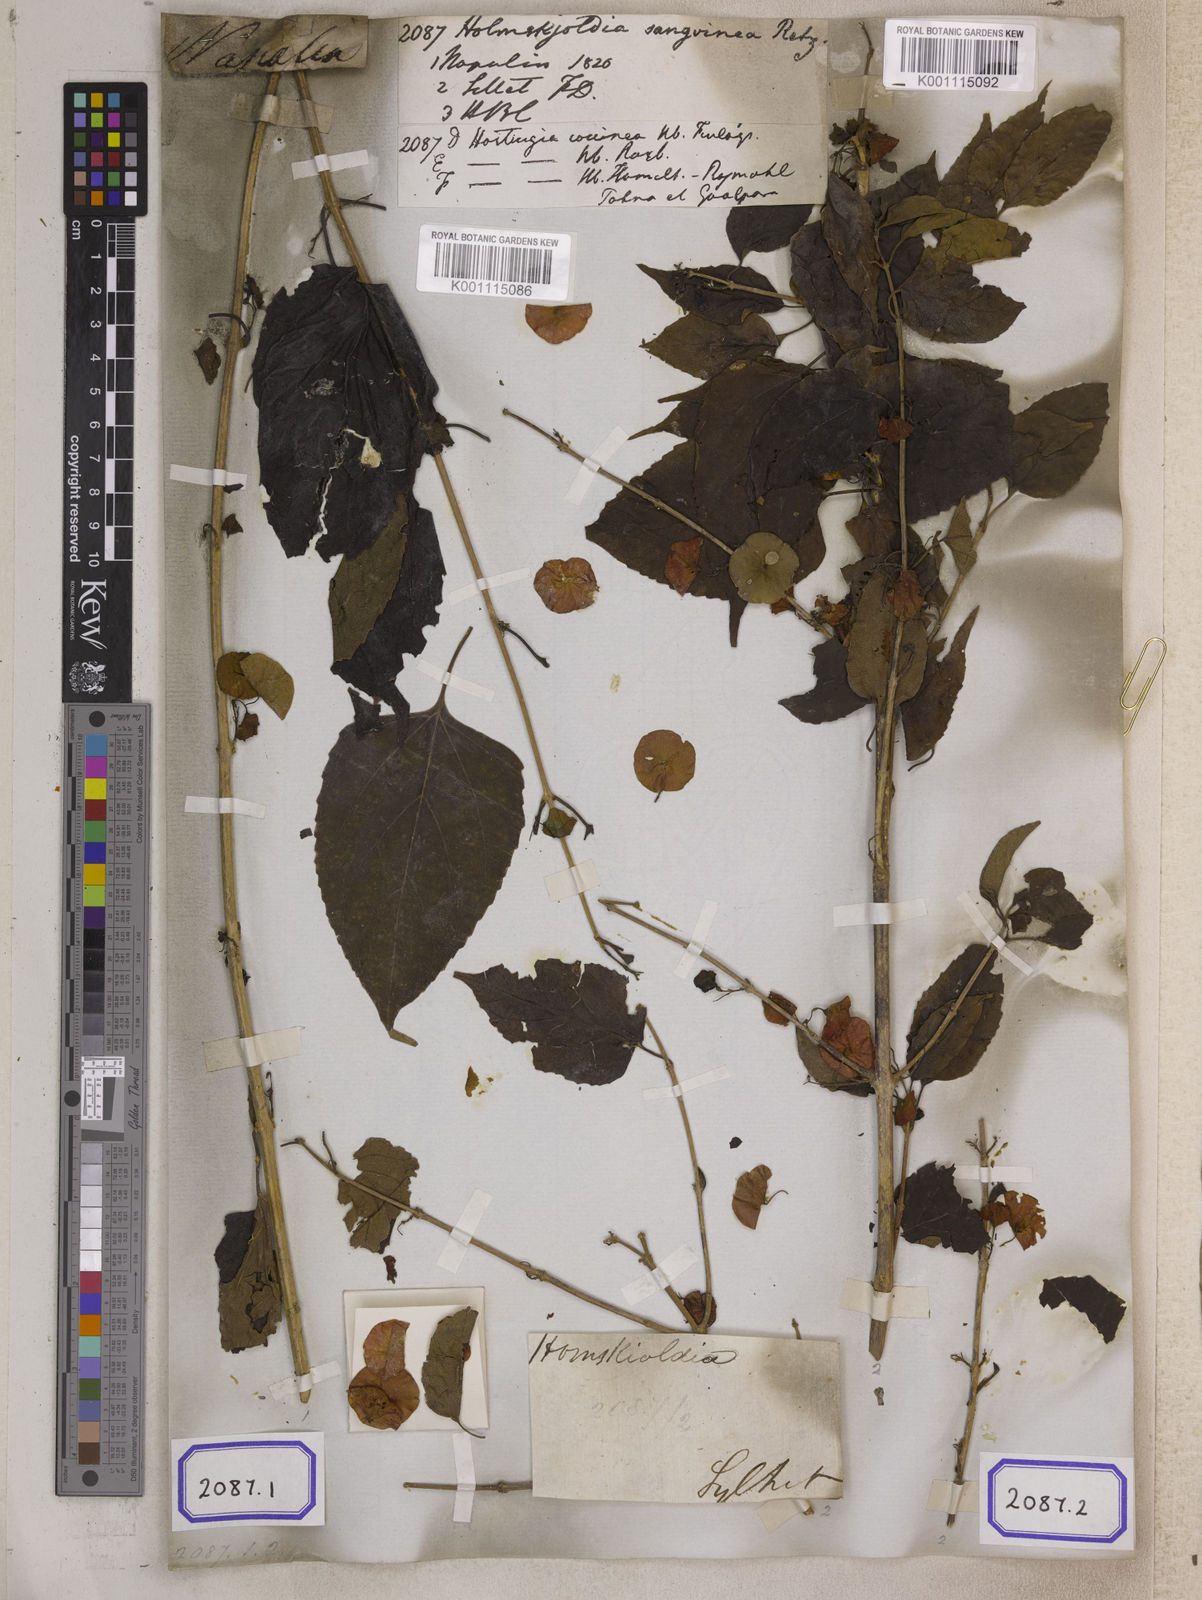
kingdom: Plantae
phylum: Tracheophyta
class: Magnoliopsida
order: Lamiales
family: Lamiaceae
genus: Holmskioldia
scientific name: Holmskioldia sanguinea
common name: Chinese hatplant
